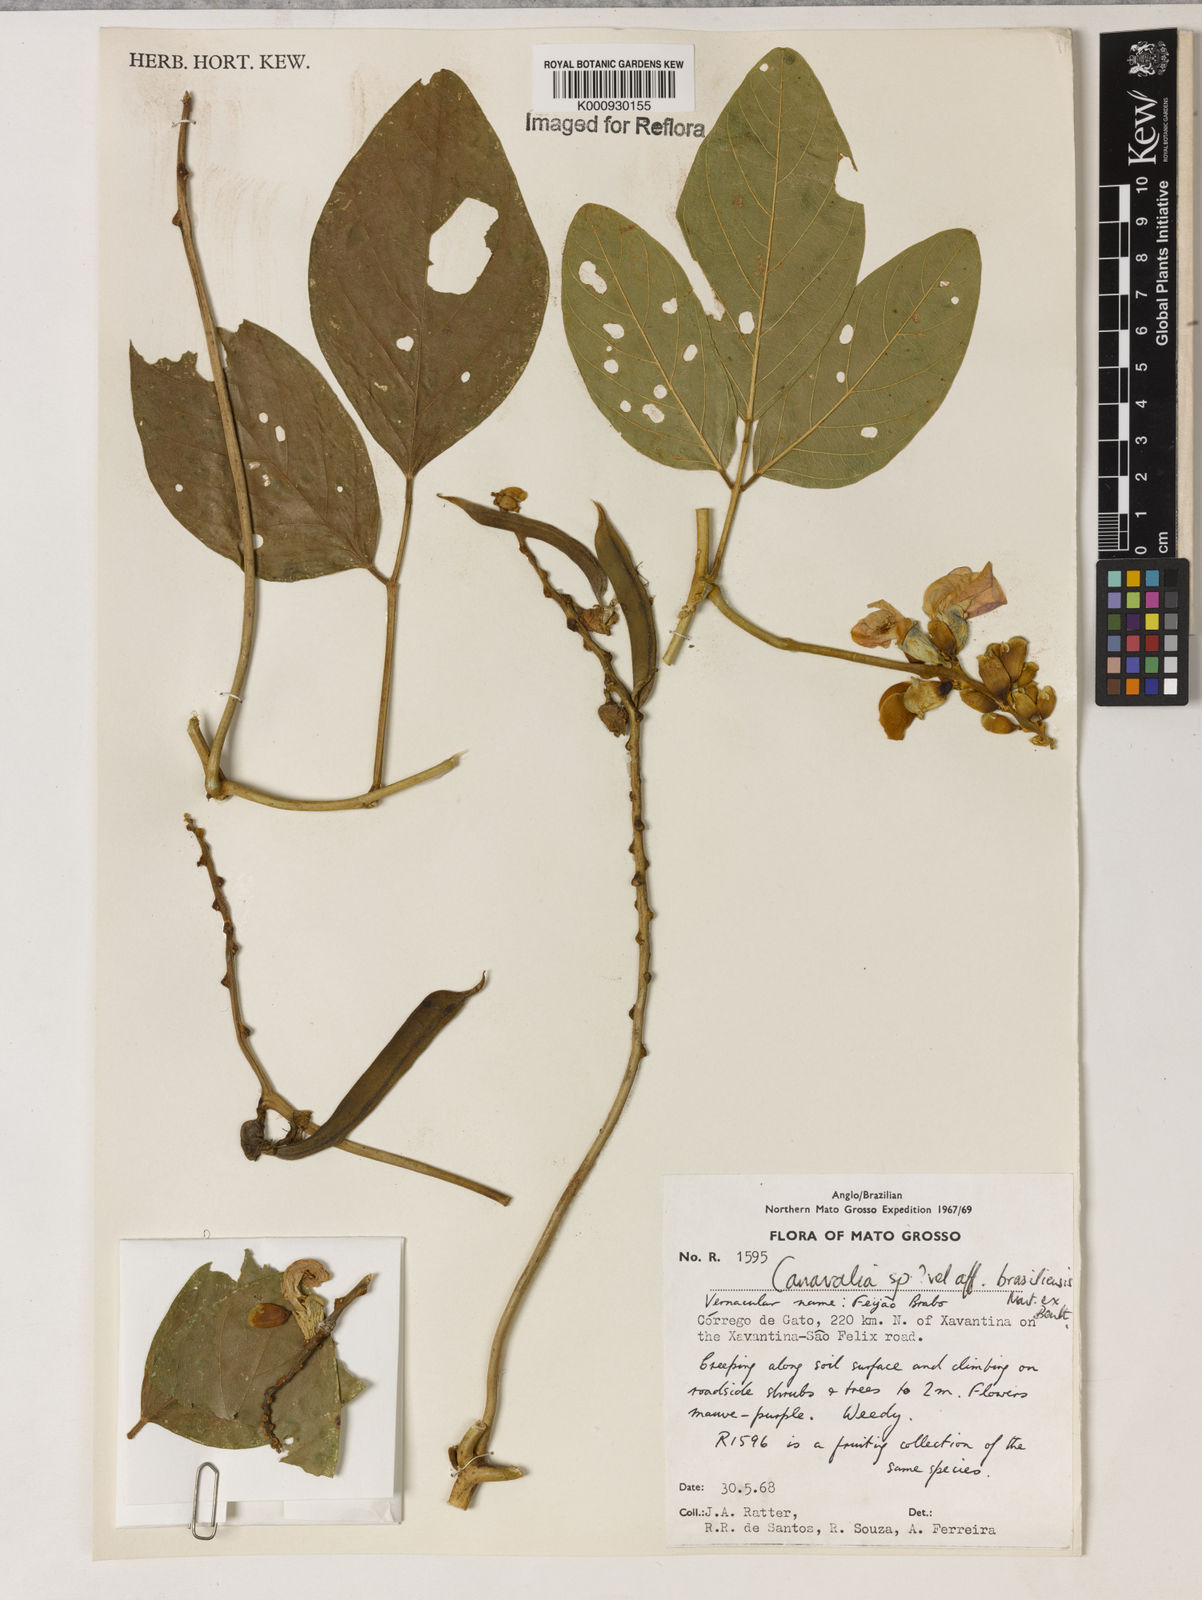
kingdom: Plantae
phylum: Tracheophyta
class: Magnoliopsida
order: Fabales
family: Fabaceae
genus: Canavalia
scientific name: Canavalia brasiliensis
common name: Barbicou-bean
